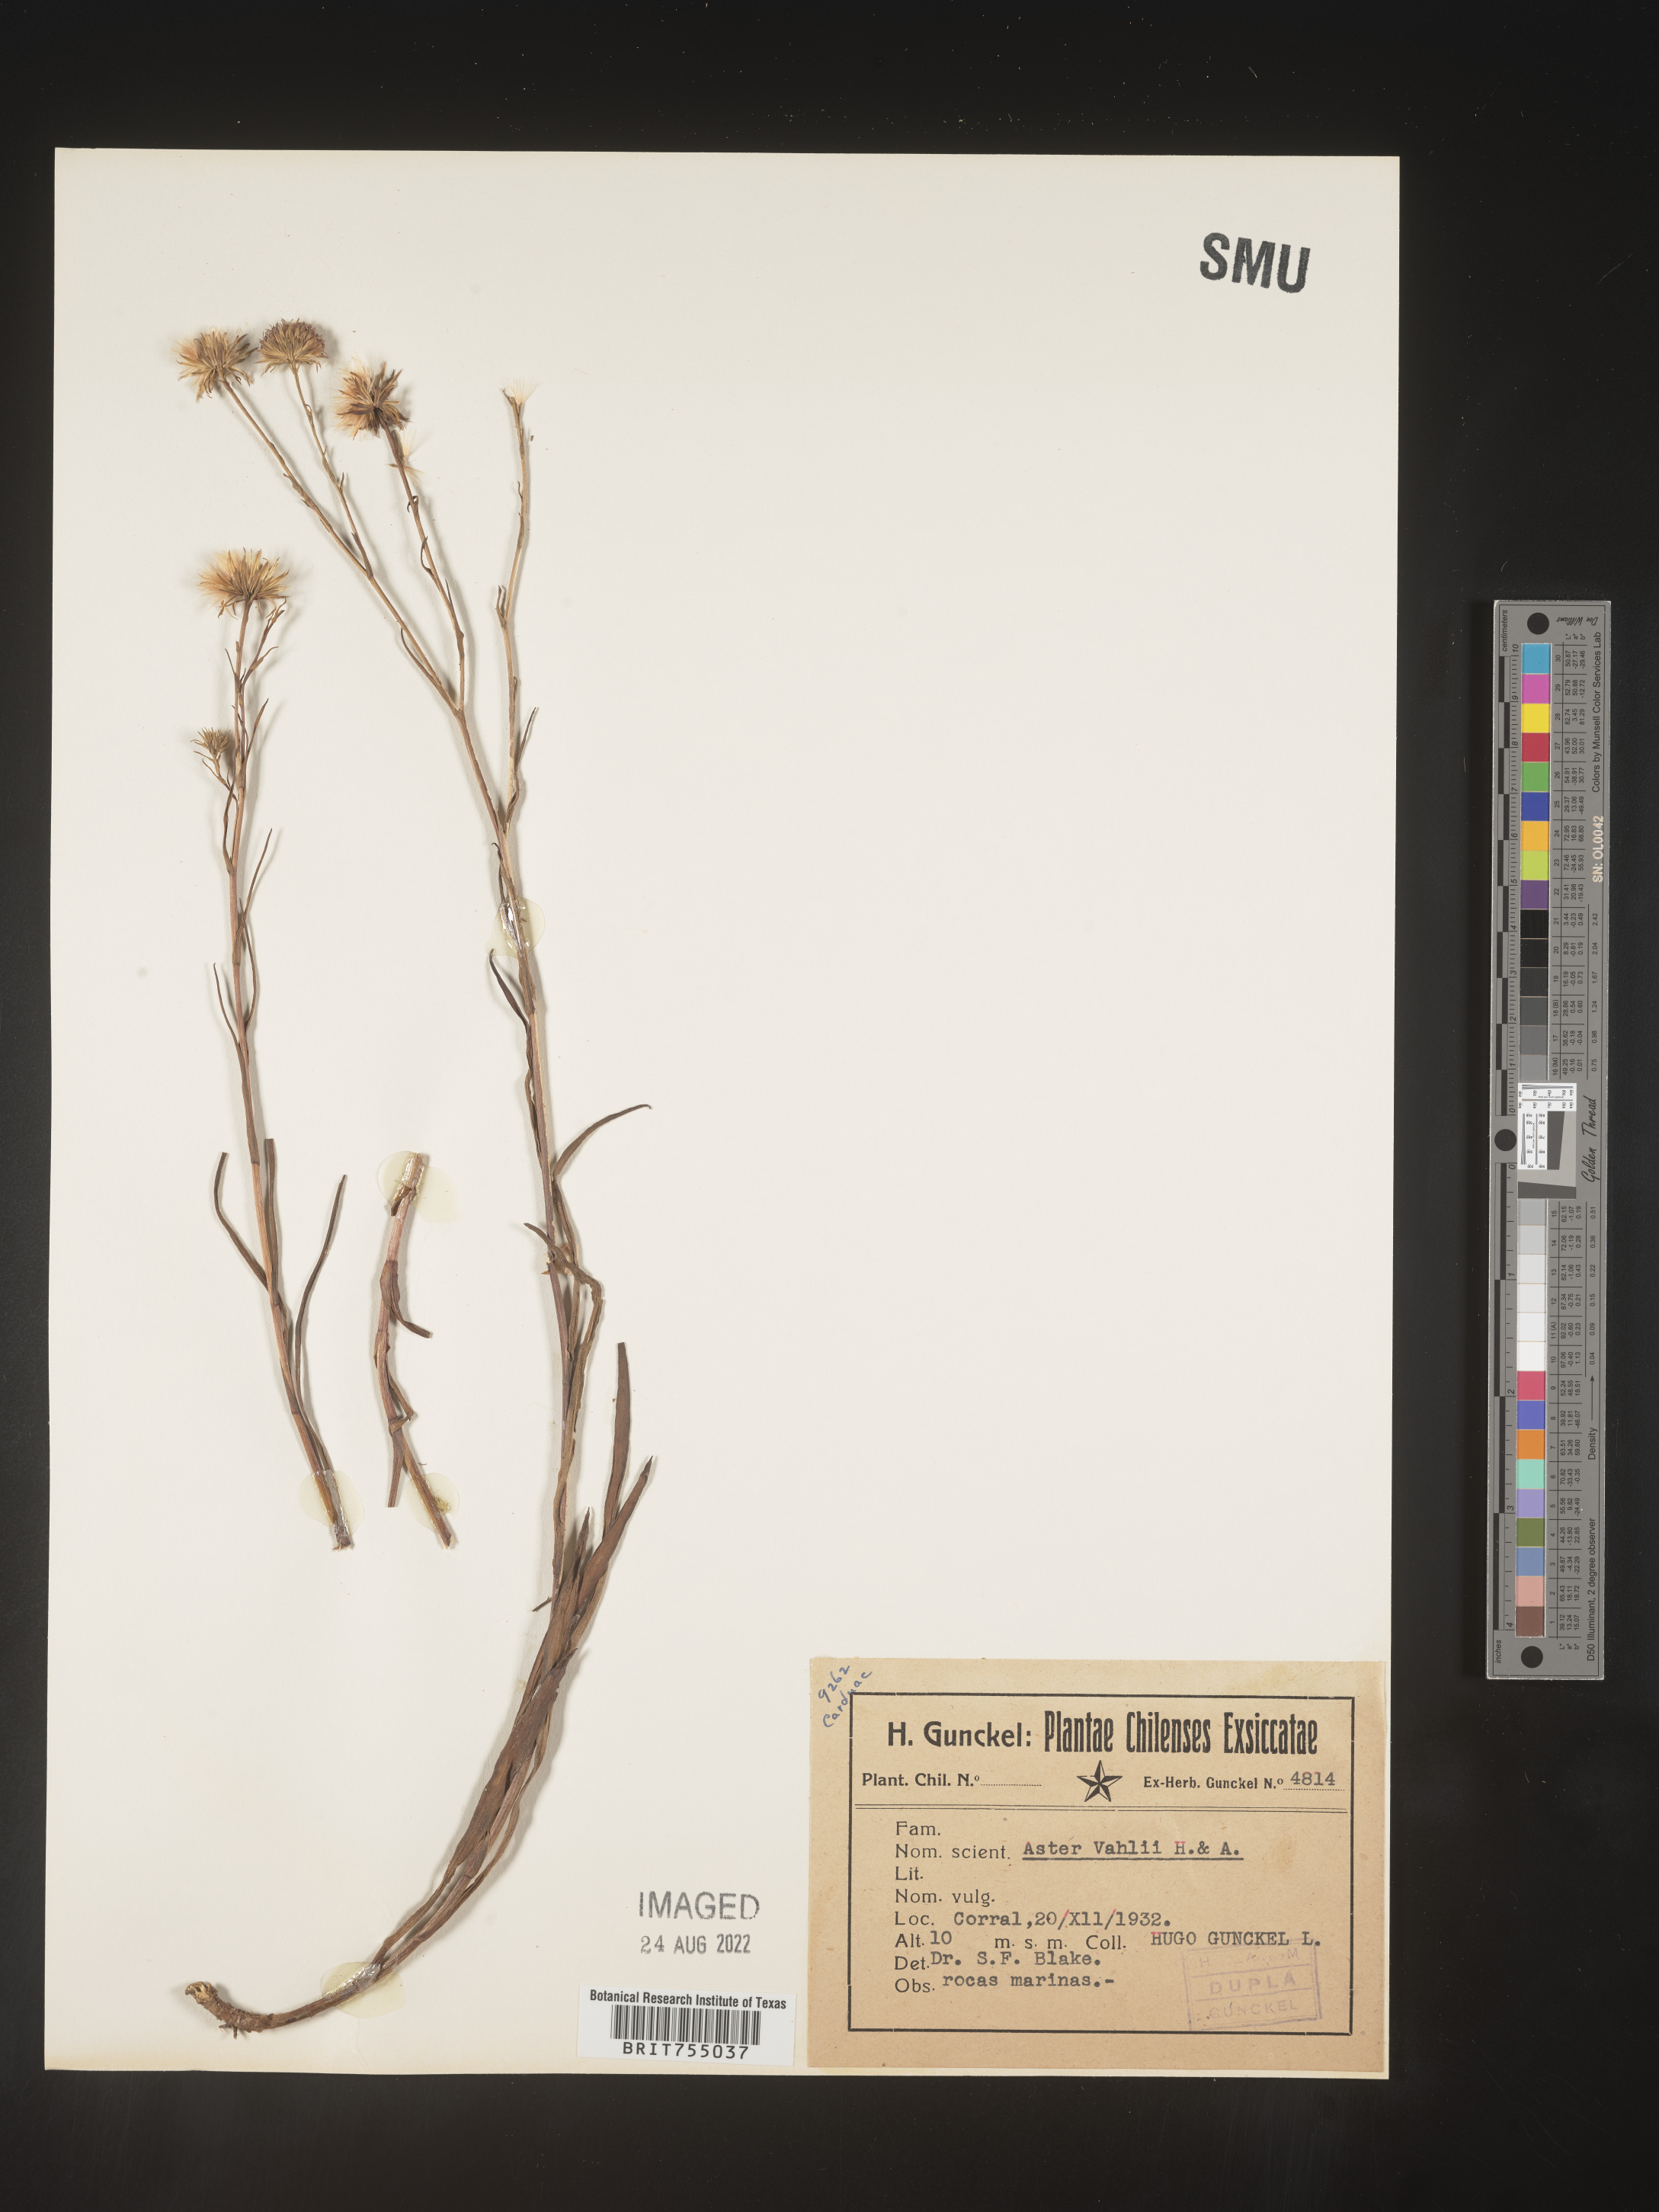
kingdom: Plantae
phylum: Tracheophyta
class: Magnoliopsida
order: Asterales
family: Asteraceae
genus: Symphyotrichum
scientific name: Symphyotrichum
